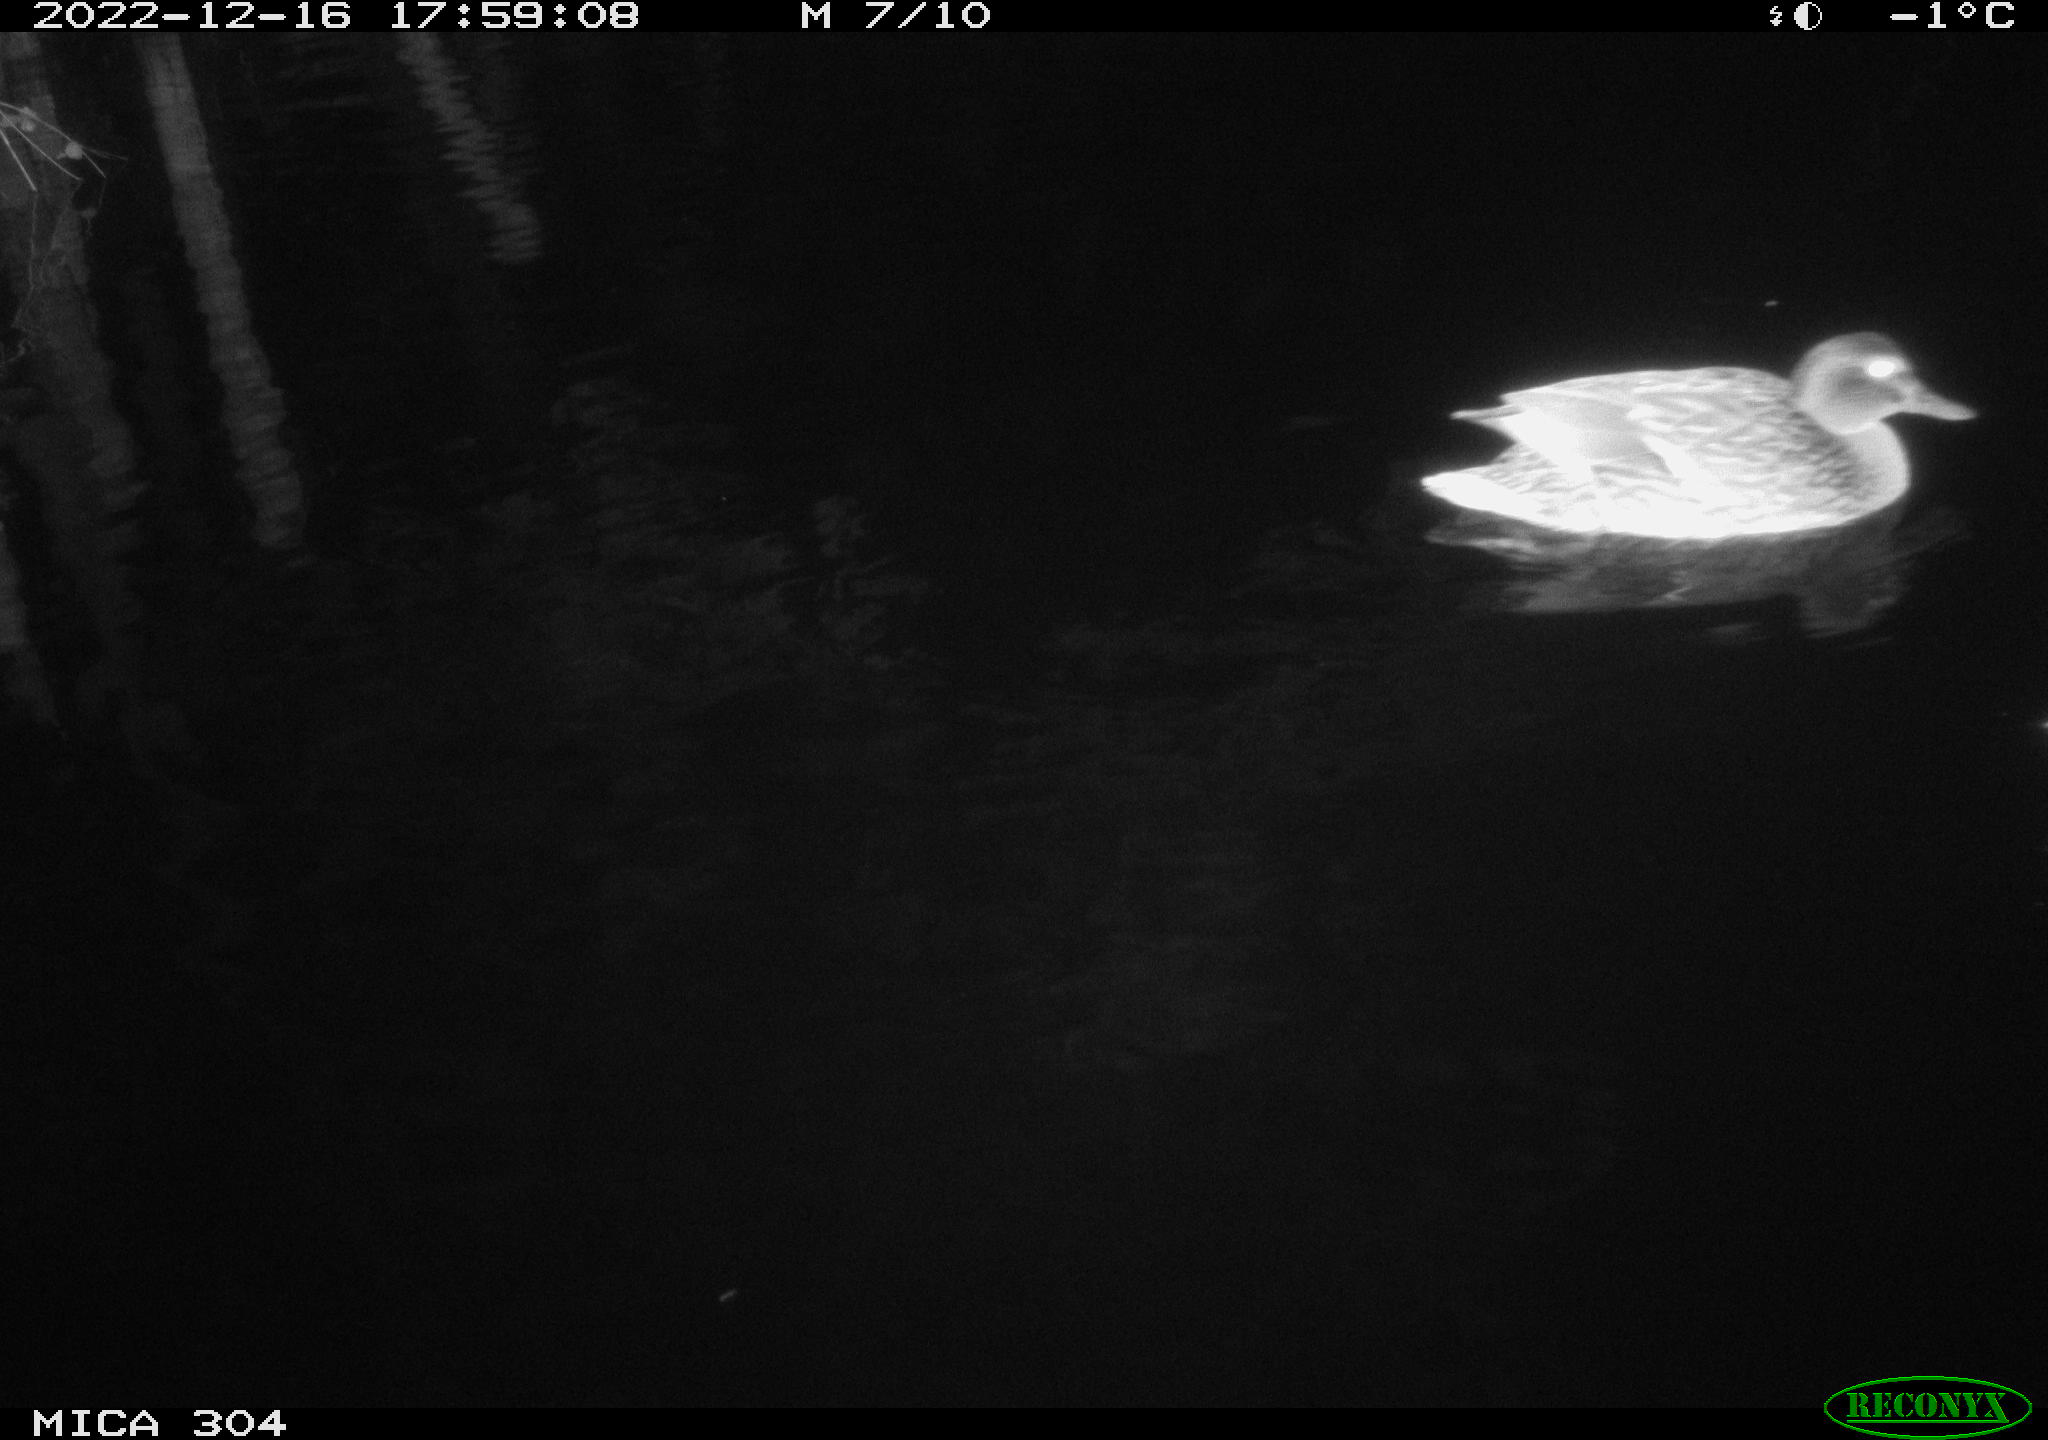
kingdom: Animalia
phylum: Chordata
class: Aves
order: Anseriformes
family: Anatidae
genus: Anas
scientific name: Anas
